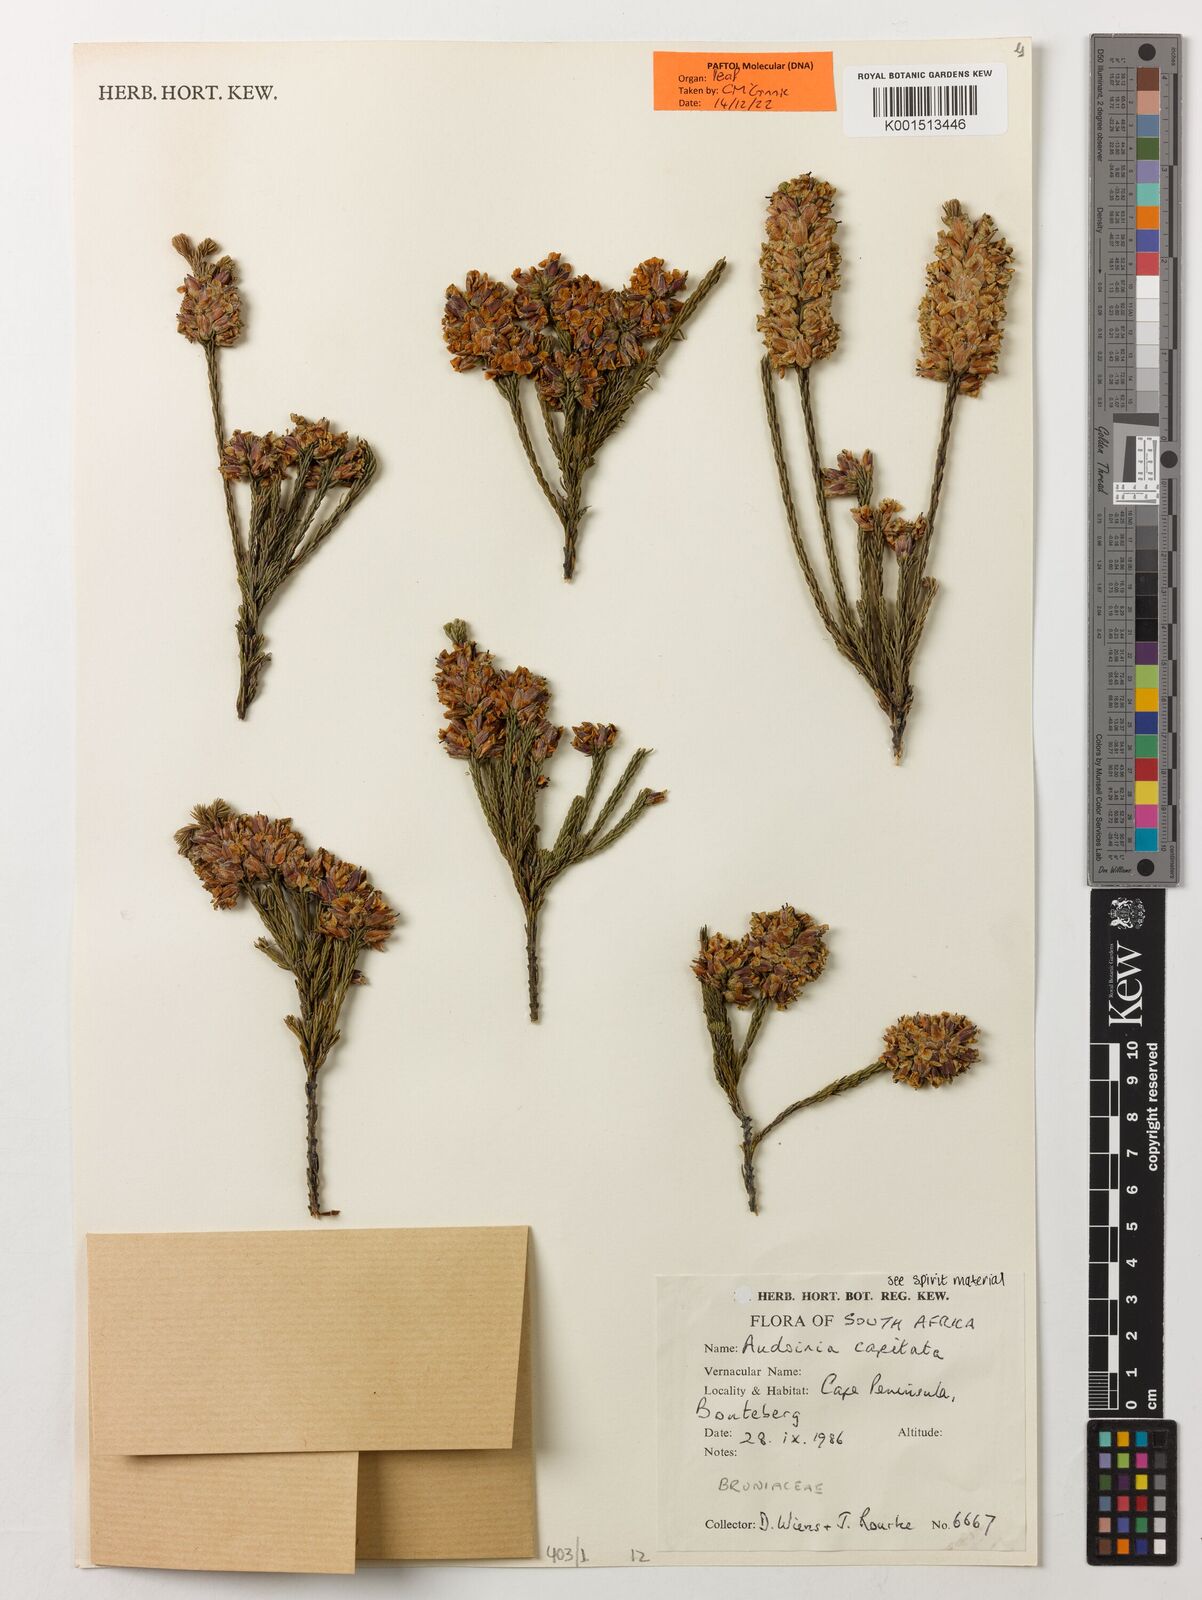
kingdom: Plantae
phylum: Tracheophyta
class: Magnoliopsida
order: Bruniales
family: Bruniaceae
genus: Audouinia
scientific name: Audouinia capitata
